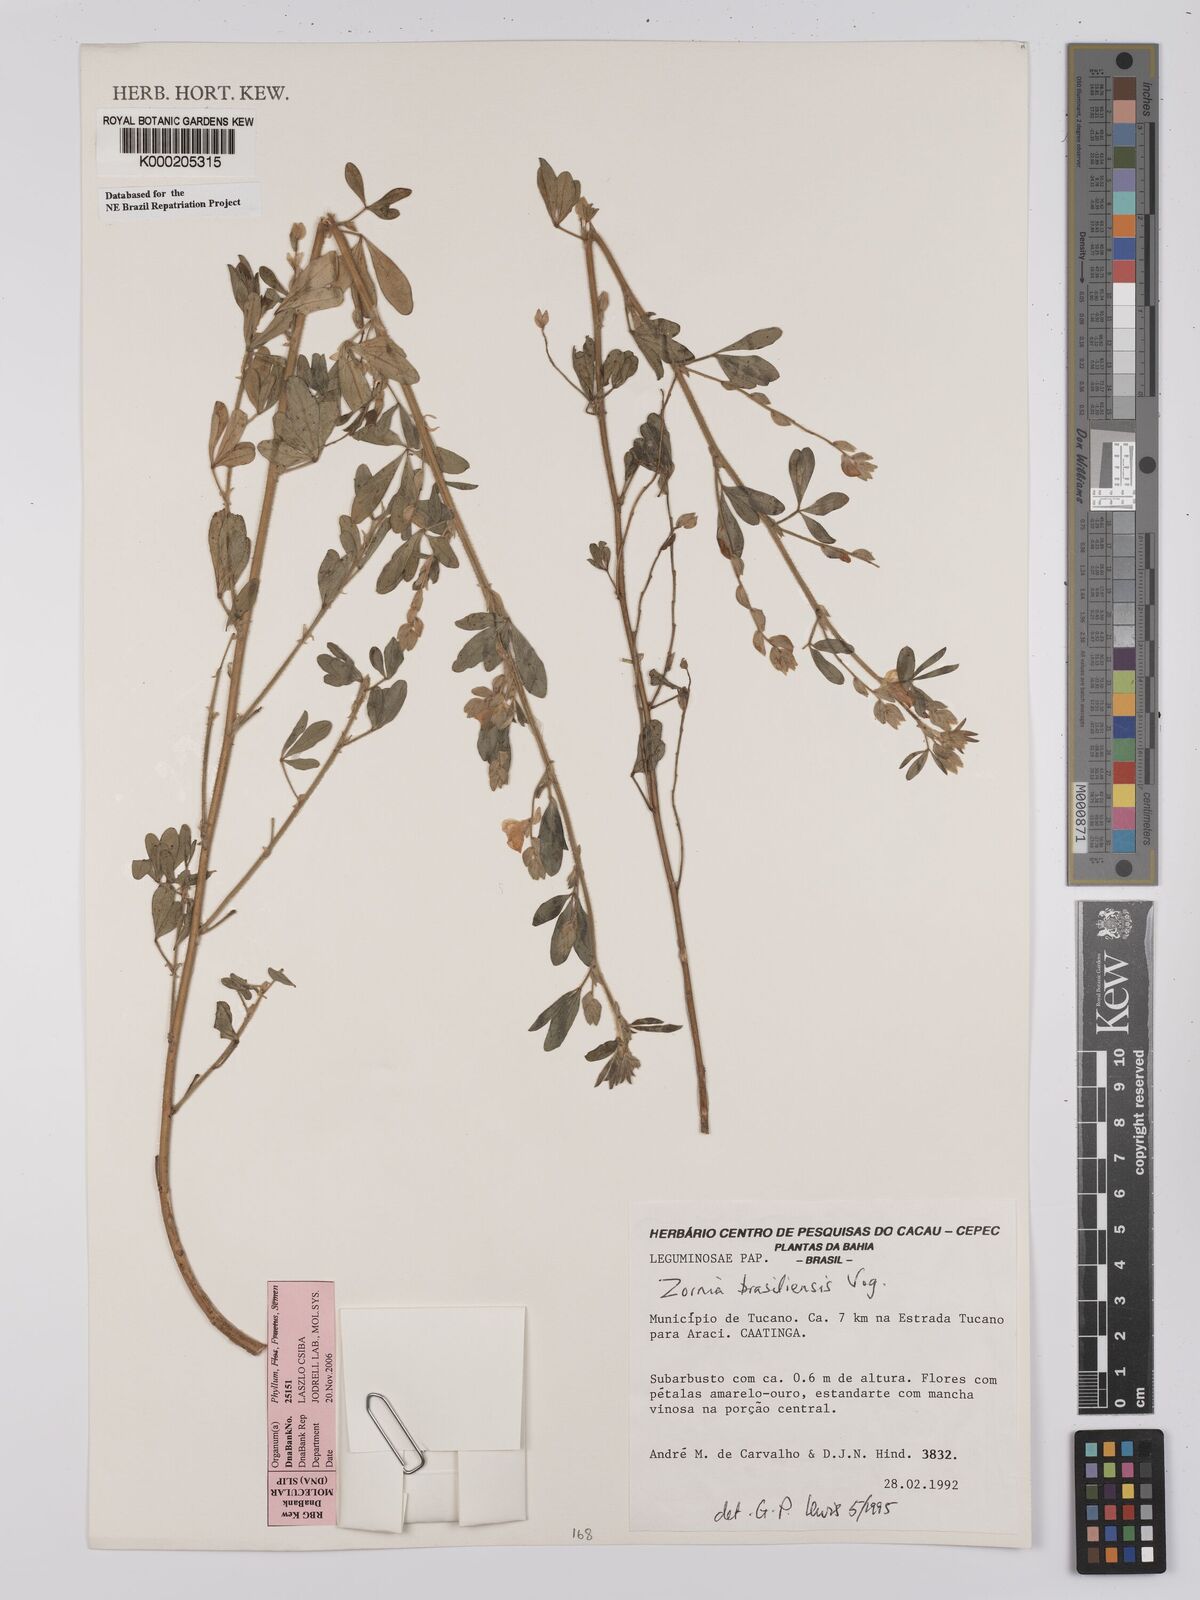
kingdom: Plantae
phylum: Tracheophyta
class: Magnoliopsida
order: Fabales
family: Fabaceae
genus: Zornia
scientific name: Zornia brasiliensis
